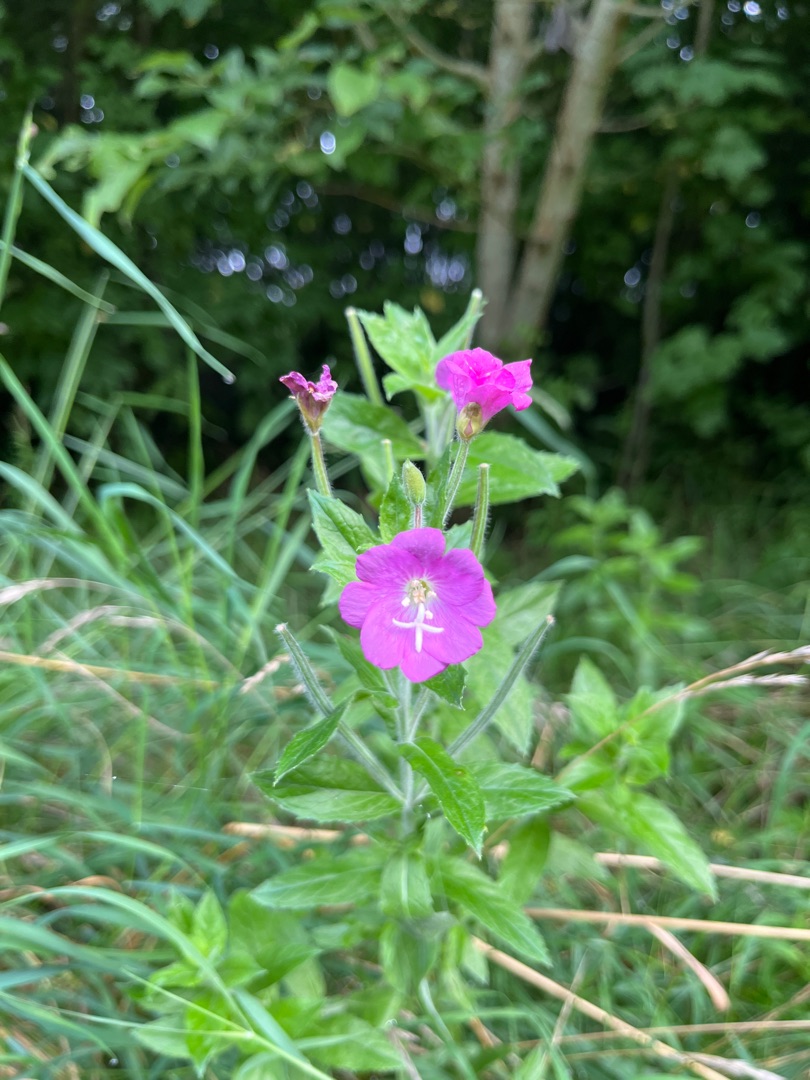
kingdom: Plantae
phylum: Tracheophyta
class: Magnoliopsida
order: Myrtales
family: Onagraceae
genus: Epilobium
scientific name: Epilobium hirsutum
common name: Lådden dueurt
